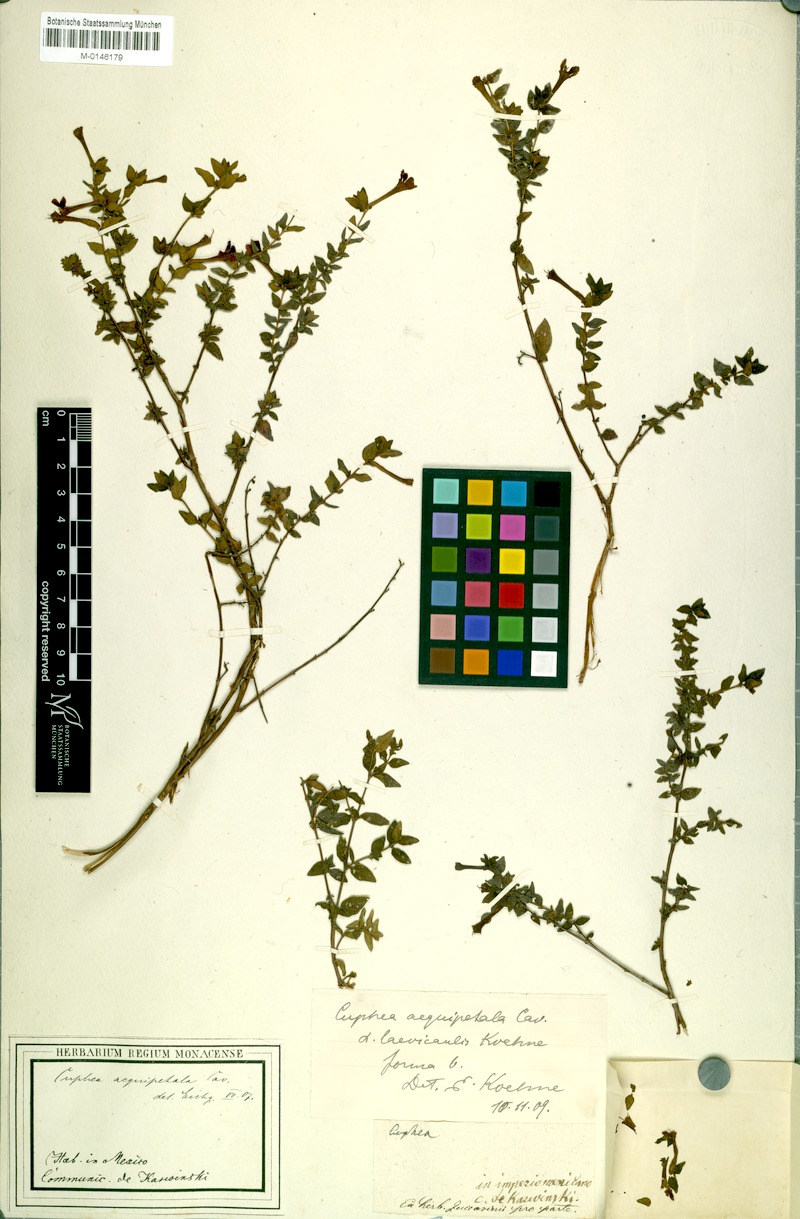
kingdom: Plantae
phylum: Tracheophyta
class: Magnoliopsida
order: Myrtales
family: Lythraceae
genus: Cuphea
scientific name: Cuphea aequipetala
